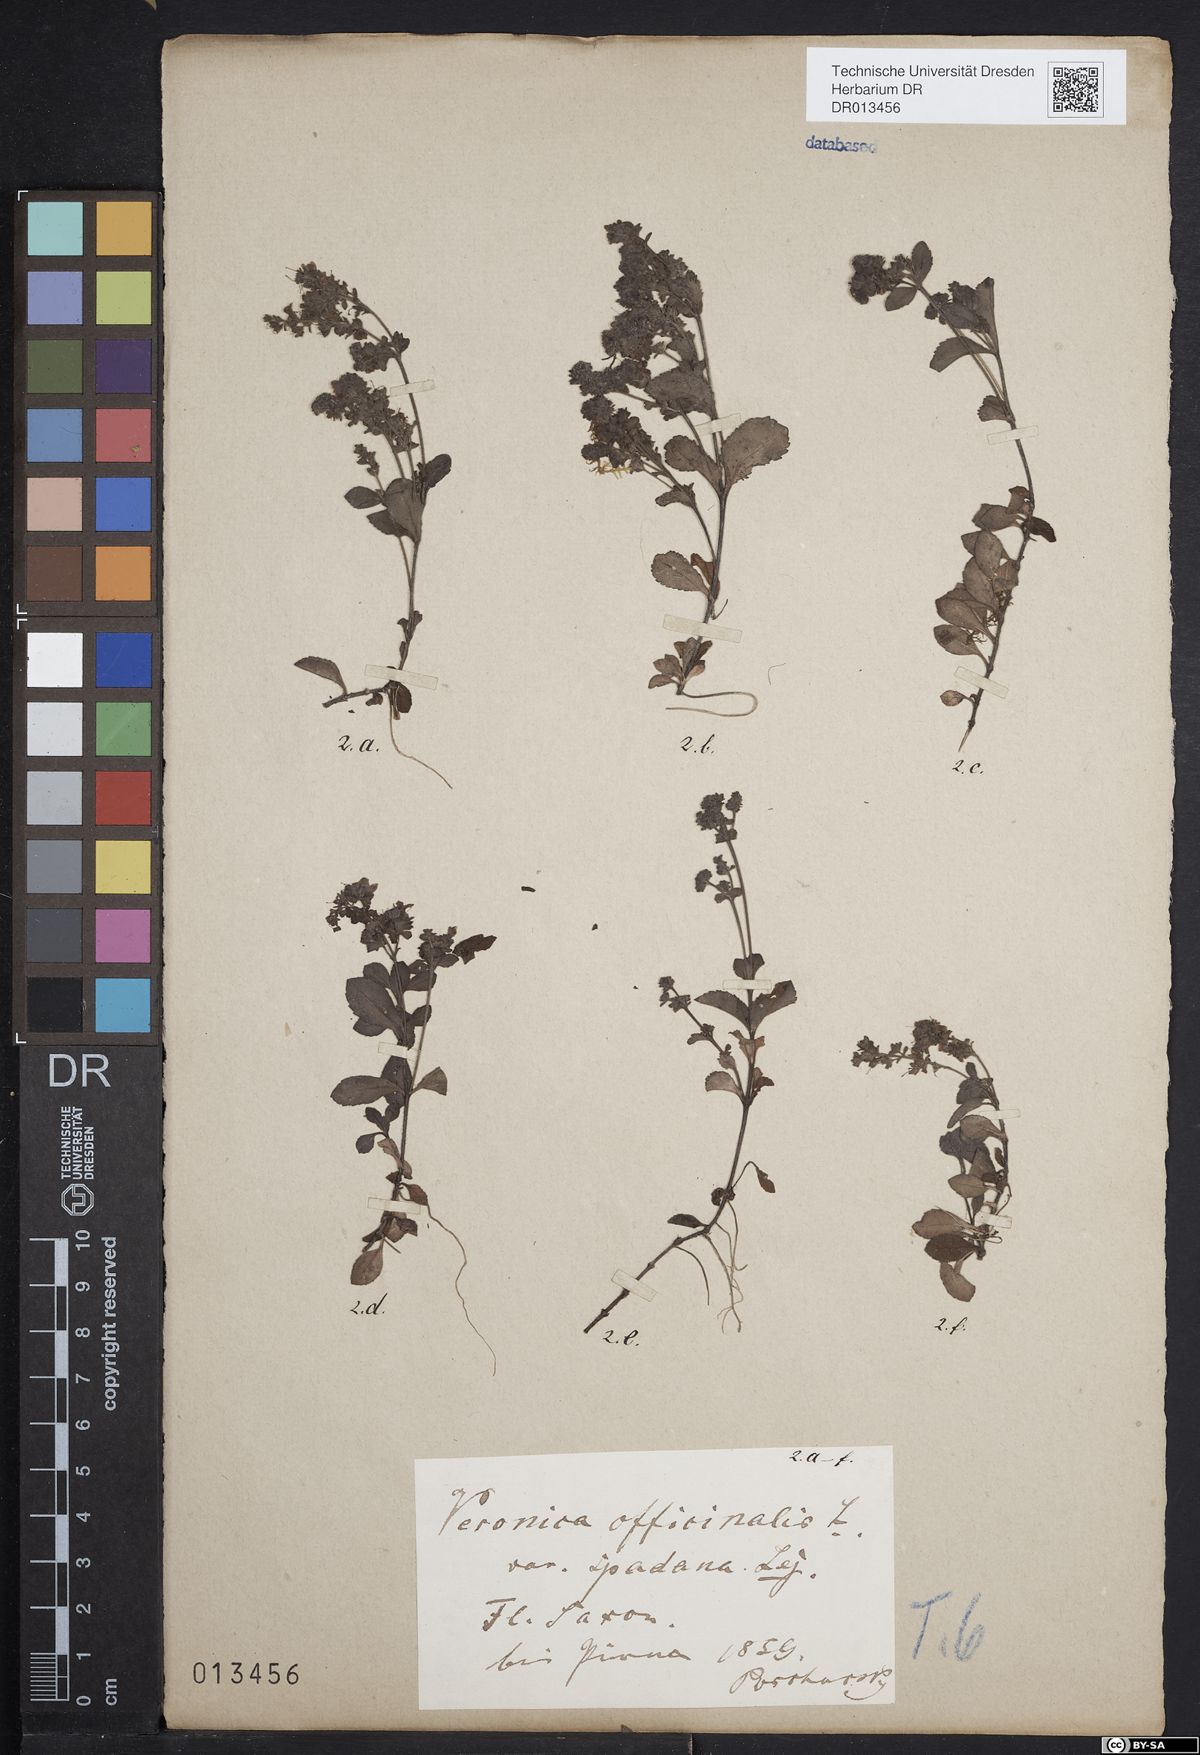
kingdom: Plantae
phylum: Tracheophyta
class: Magnoliopsida
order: Lamiales
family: Plantaginaceae
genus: Veronica
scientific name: Veronica officinalis
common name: Common speedwell
